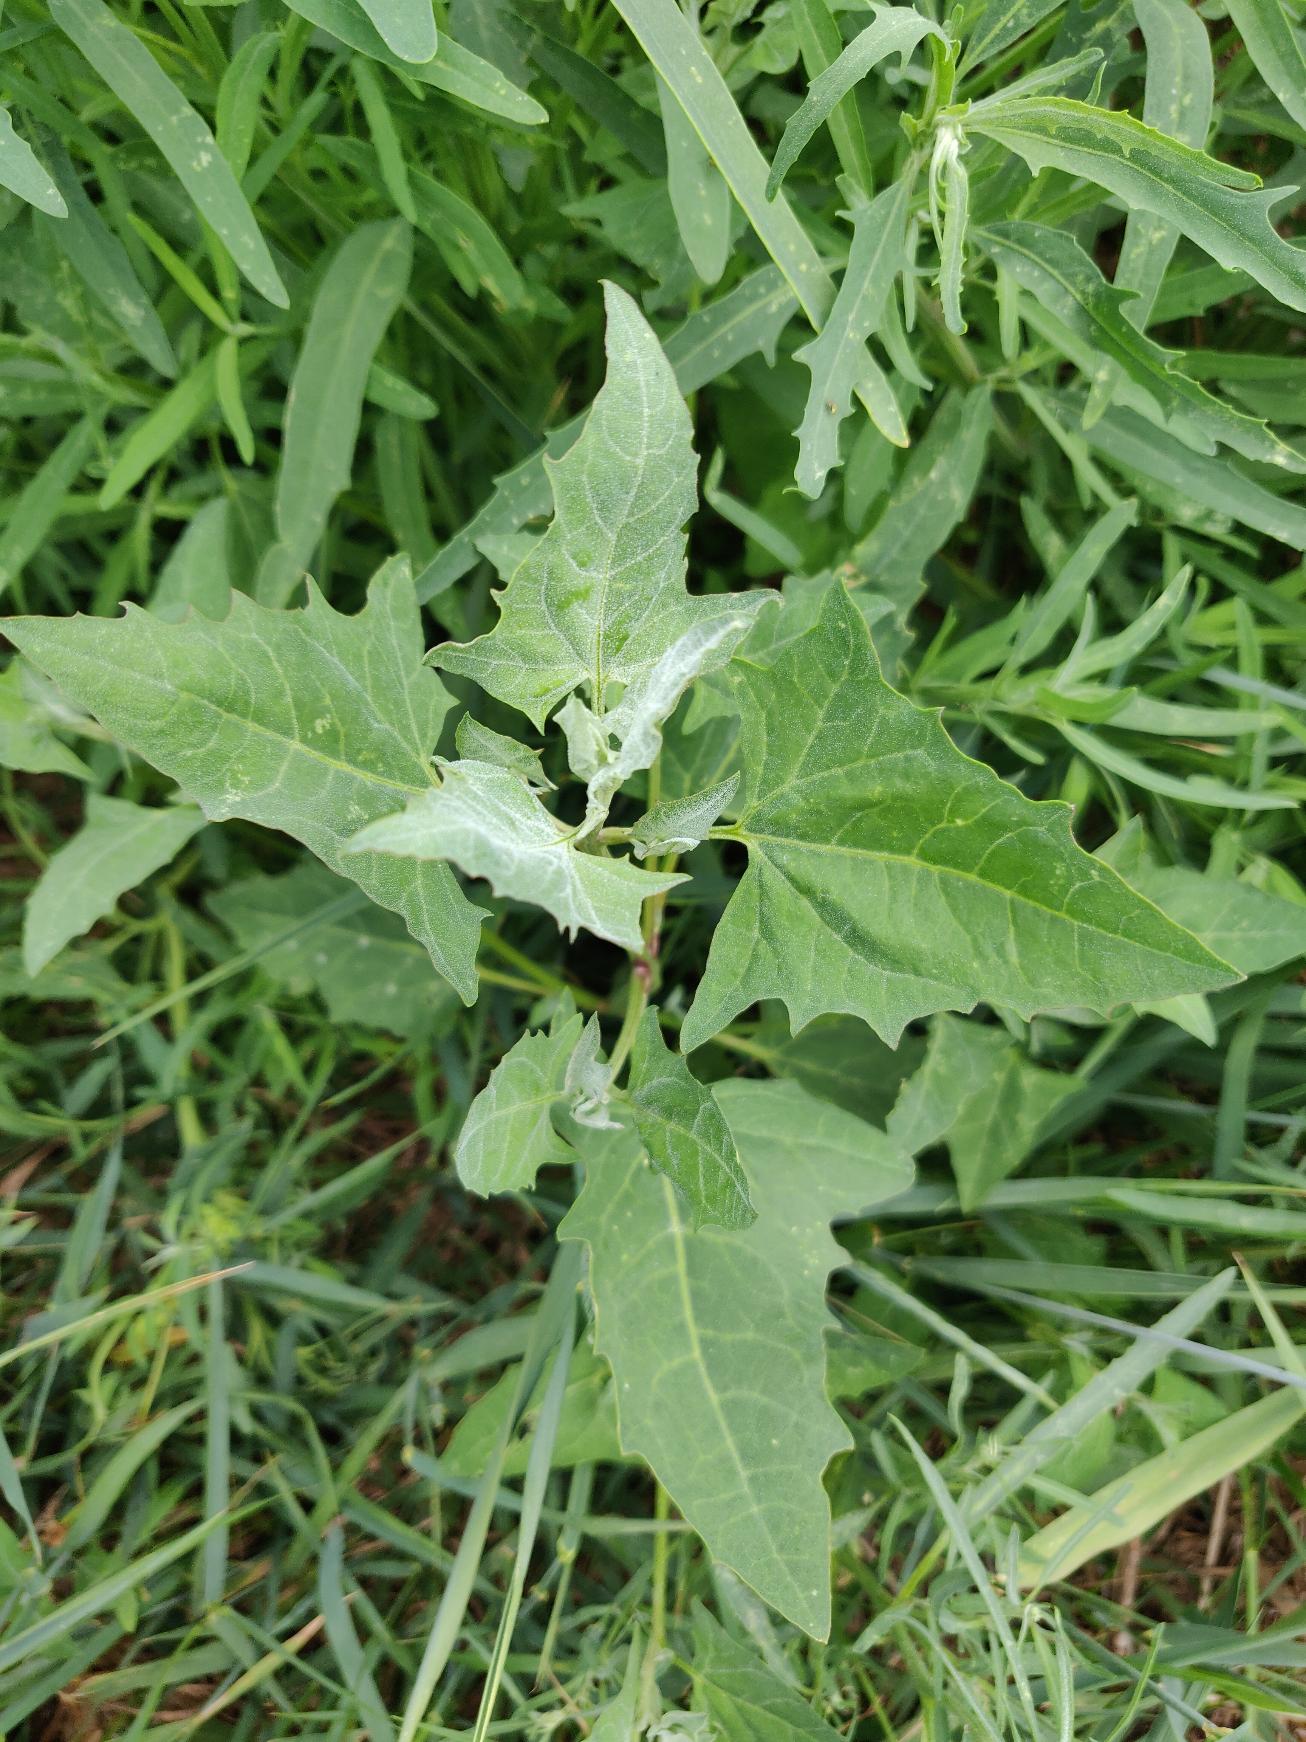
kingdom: Plantae
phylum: Tracheophyta
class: Magnoliopsida
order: Caryophyllales
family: Amaranthaceae
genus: Atriplex
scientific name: Atriplex prostrata
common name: Spyd-mælde
